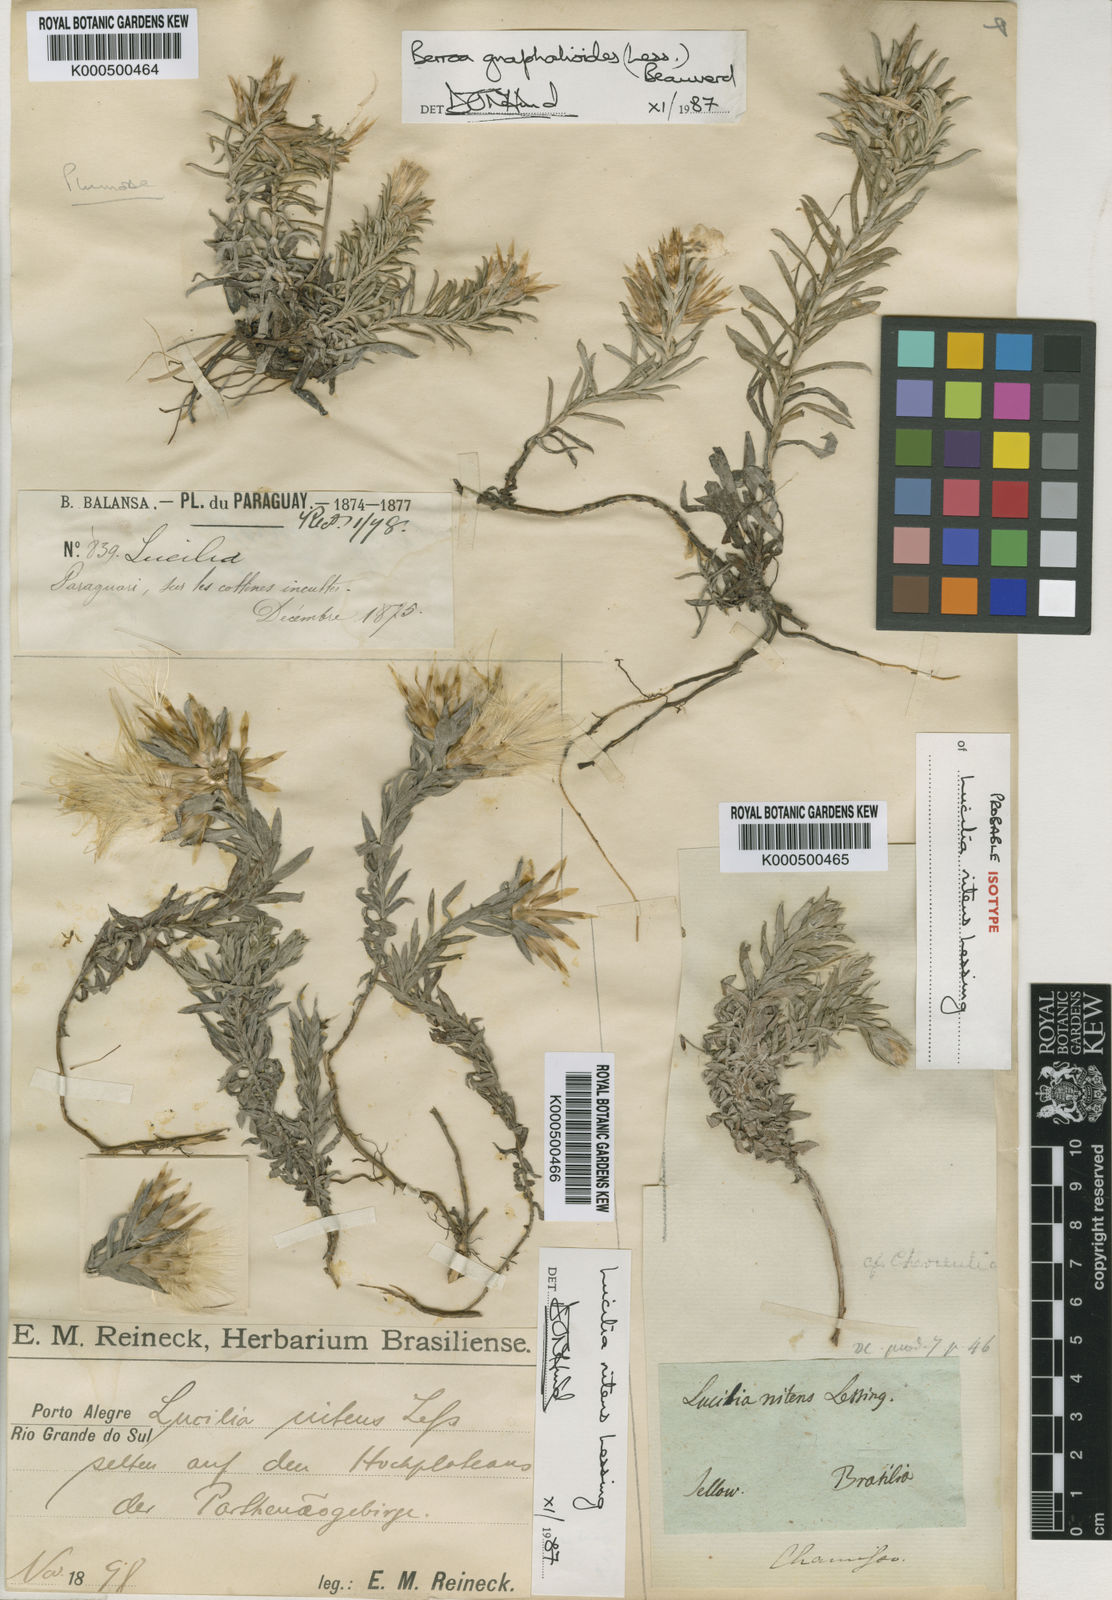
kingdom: Plantae
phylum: Tracheophyta
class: Magnoliopsida
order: Asterales
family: Asteraceae
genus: Lucilia
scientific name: Lucilia nitens
